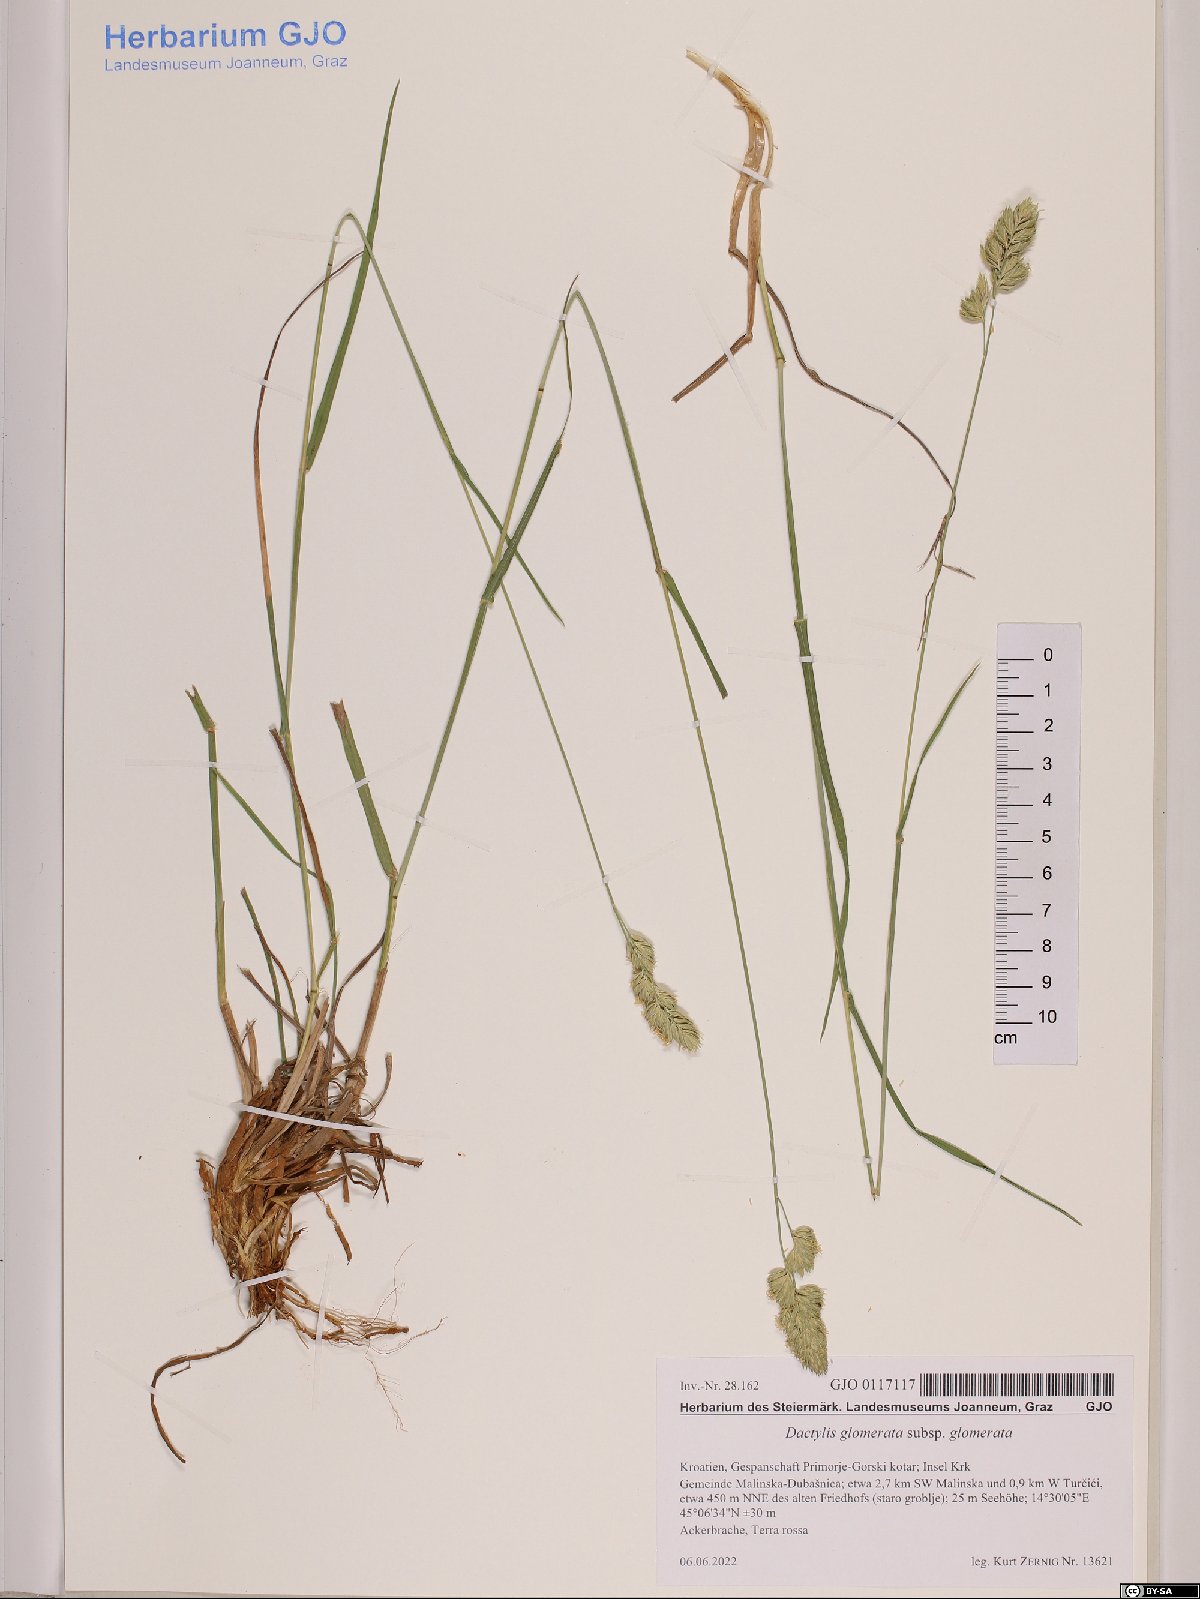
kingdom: Plantae
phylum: Tracheophyta
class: Liliopsida
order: Poales
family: Poaceae
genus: Dactylis
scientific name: Dactylis glomerata
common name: Orchardgrass
